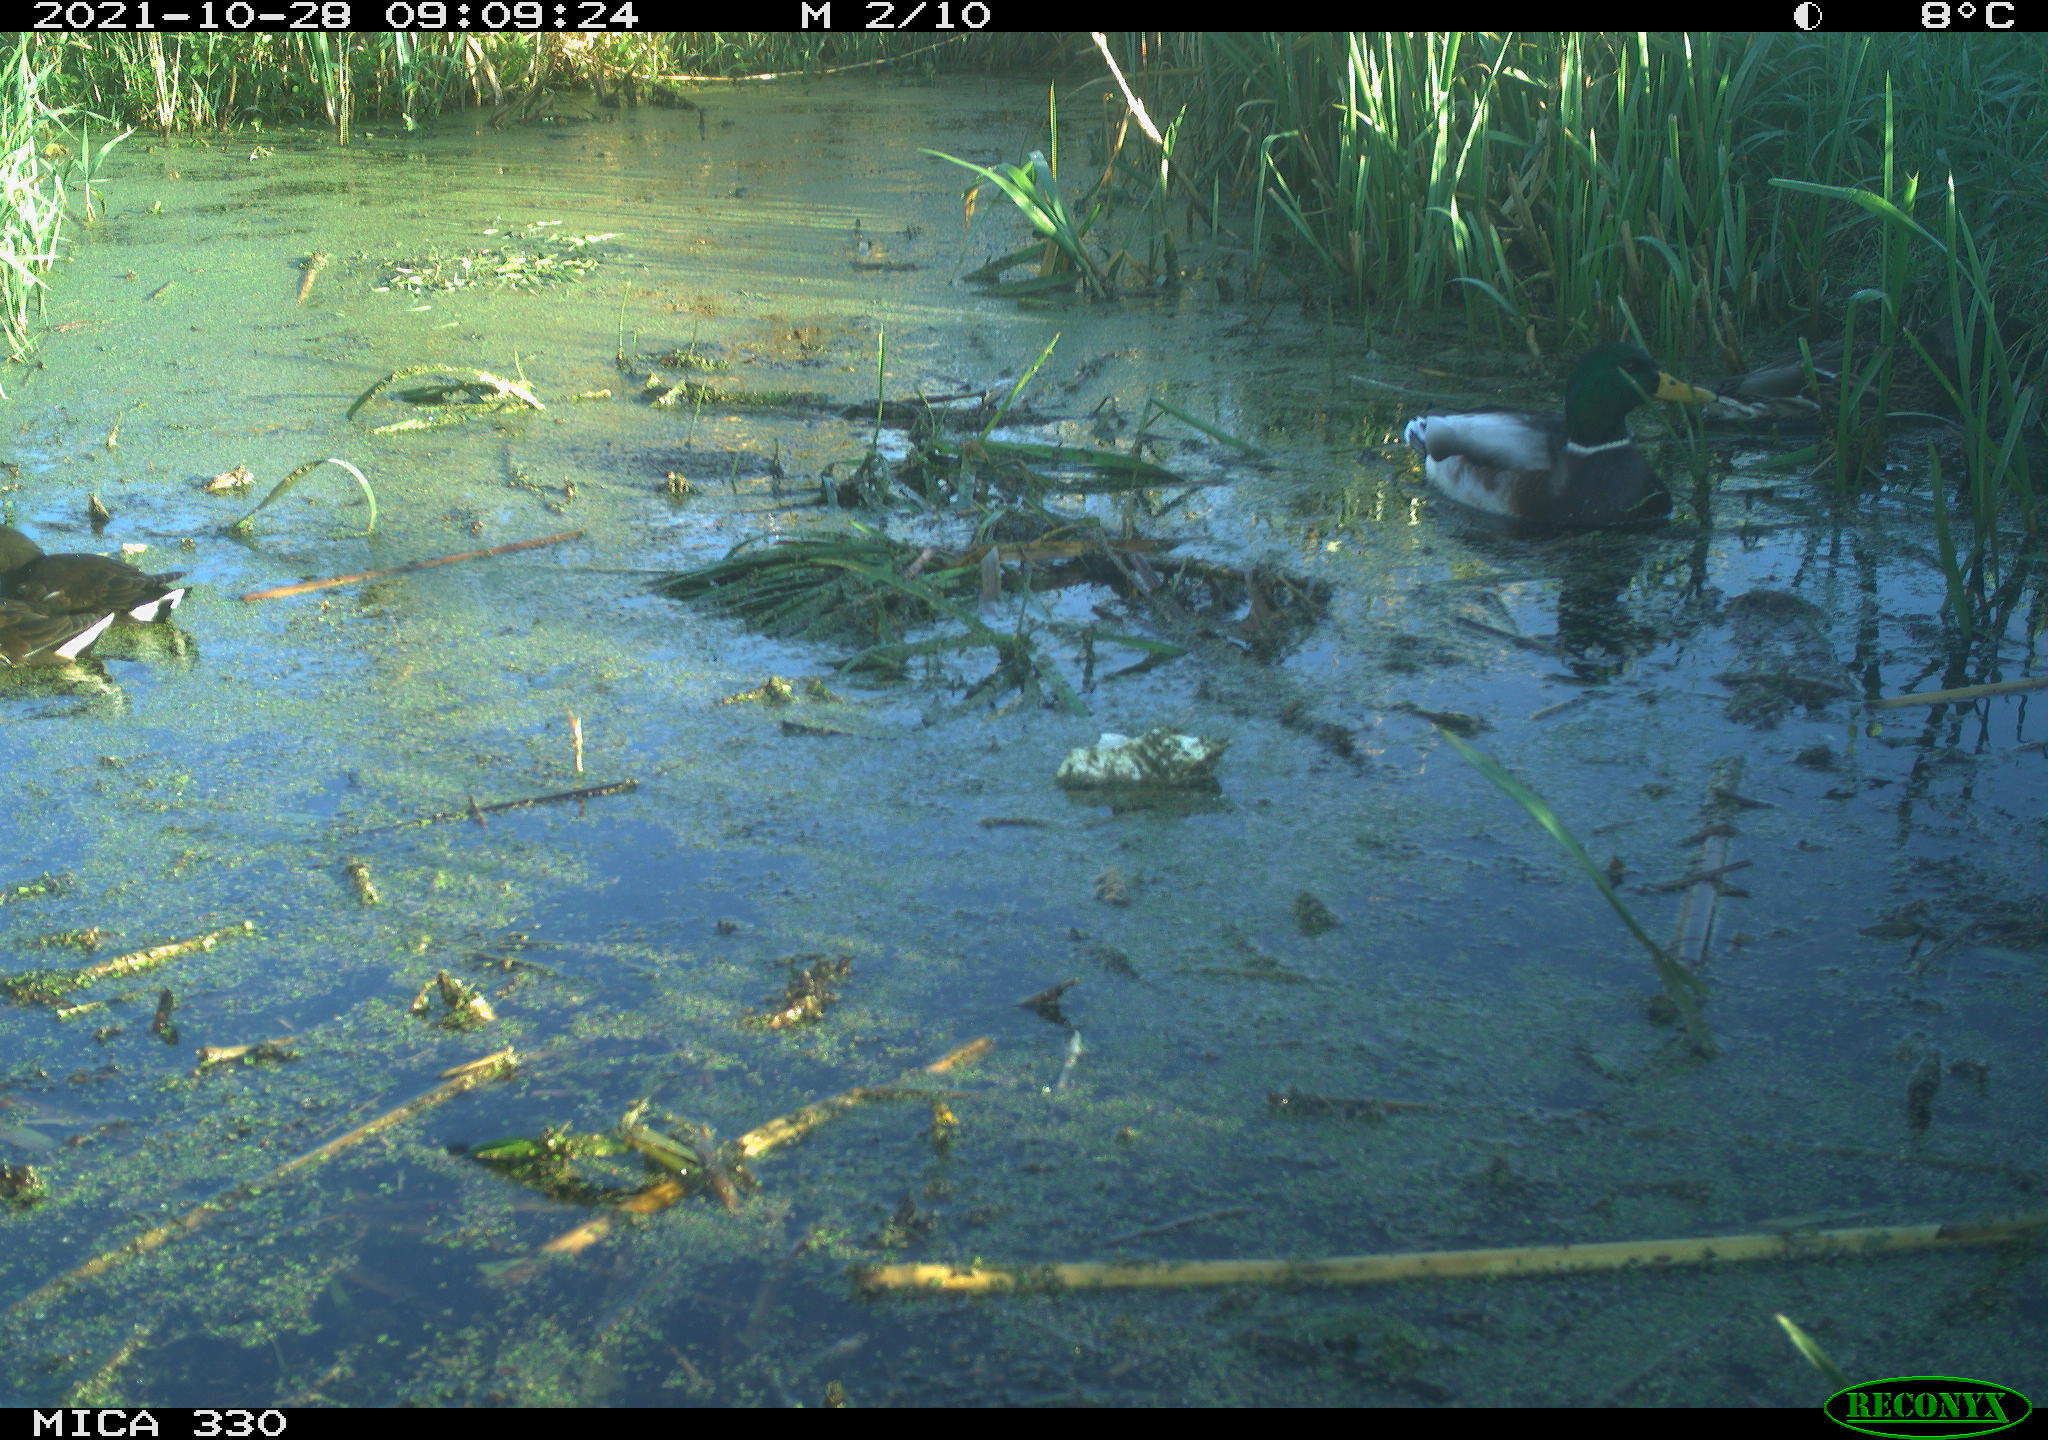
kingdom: Animalia
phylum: Chordata
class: Aves
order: Anseriformes
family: Anatidae
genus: Anas
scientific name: Anas platyrhynchos
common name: Mallard
